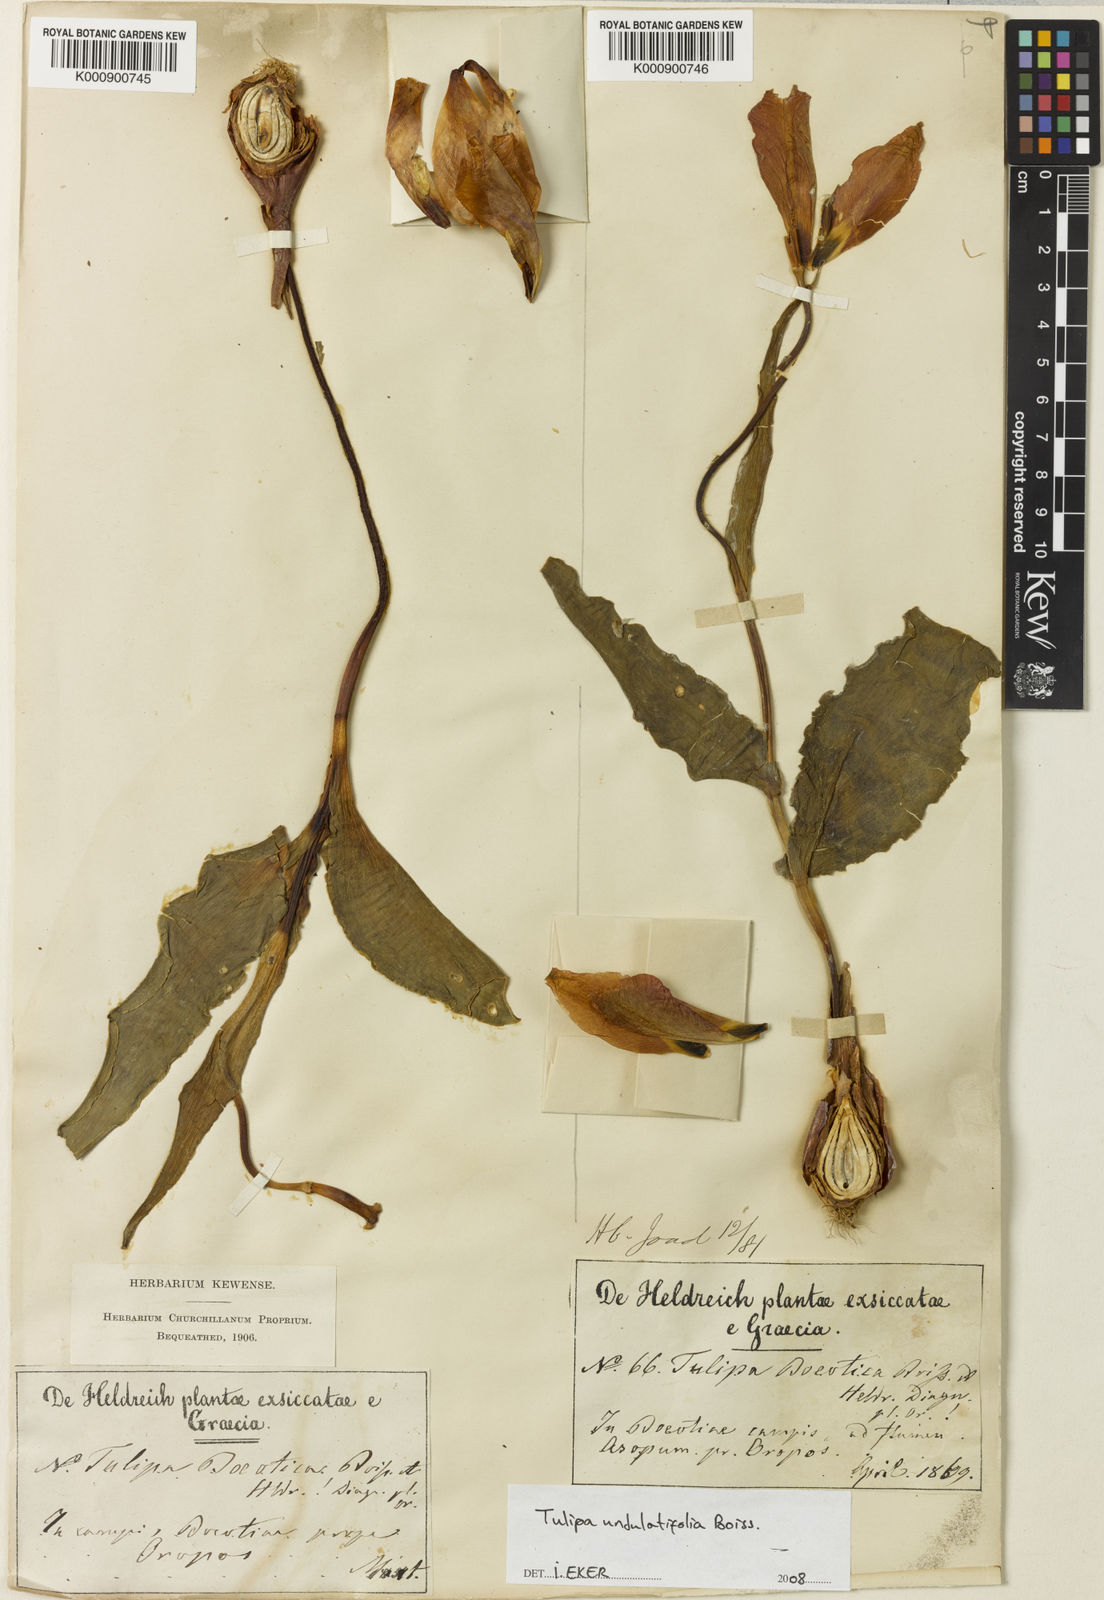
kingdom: Plantae
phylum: Tracheophyta
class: Liliopsida
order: Liliales
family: Liliaceae
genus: Tulipa
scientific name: Tulipa undulatifolia
